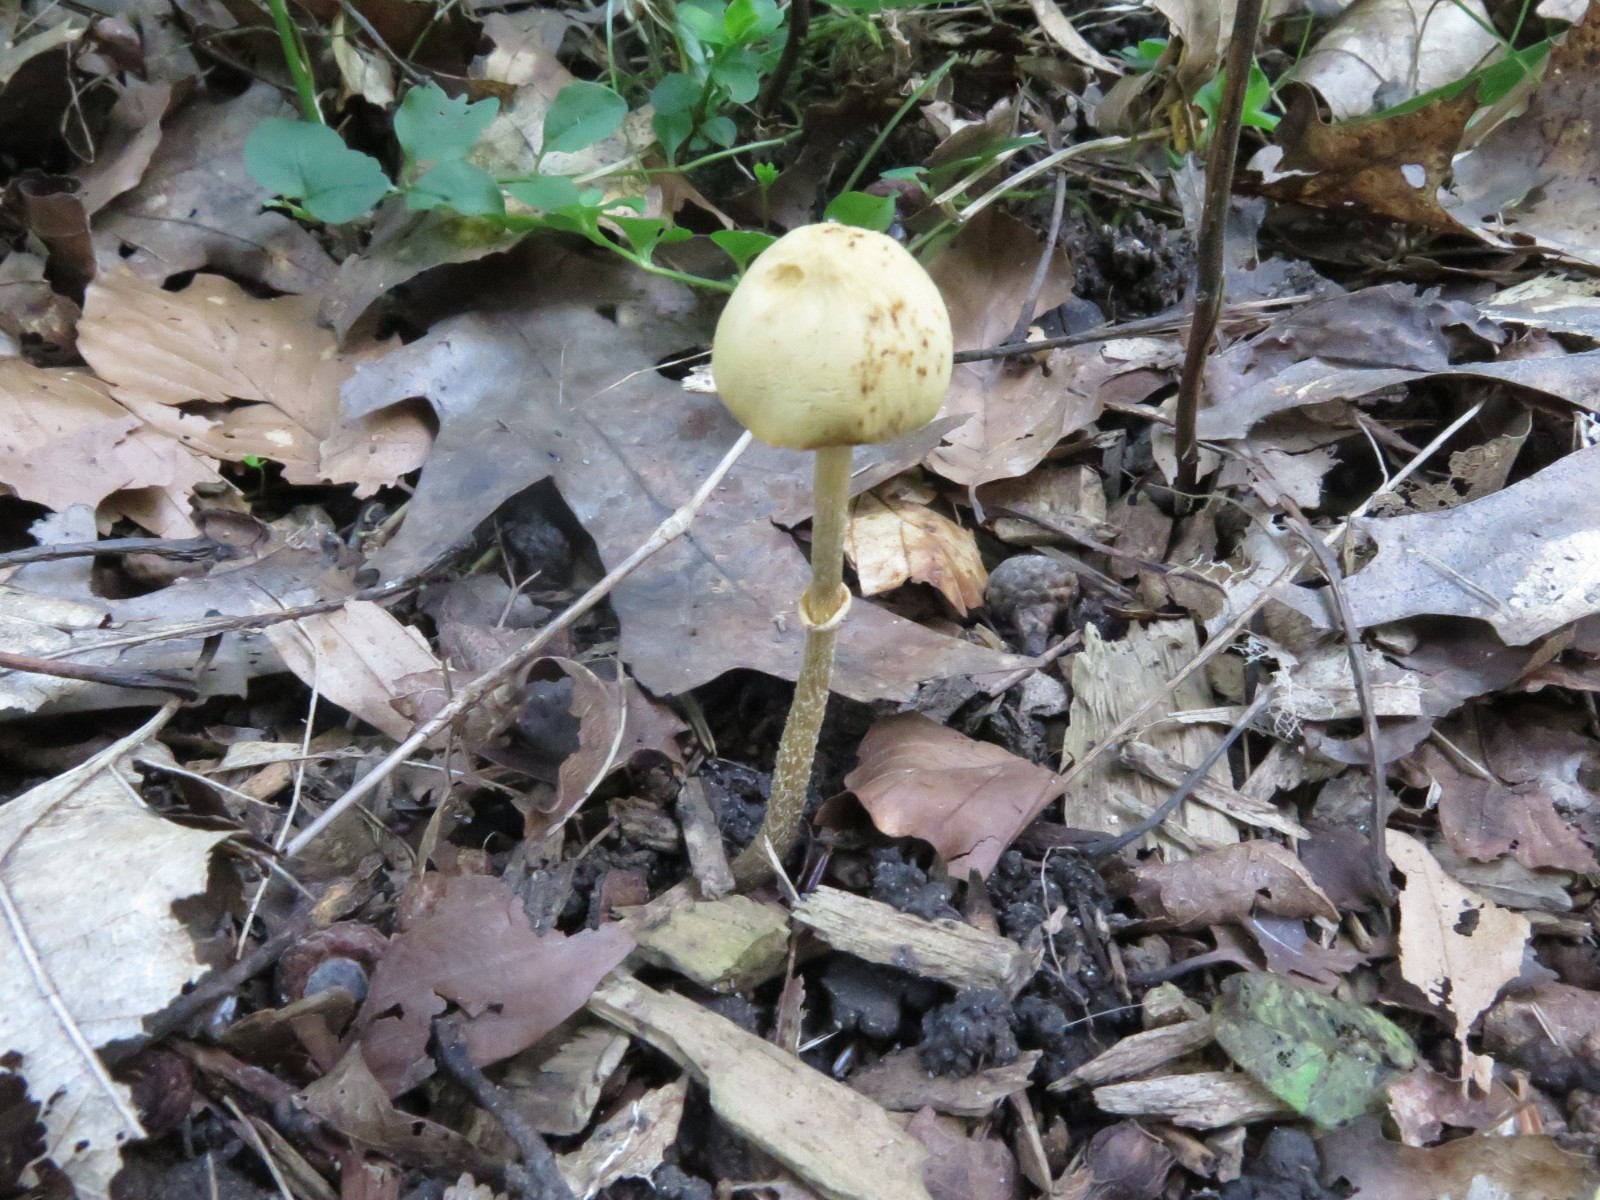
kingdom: Fungi
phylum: Basidiomycota
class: Agaricomycetes
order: Agaricales
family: Strophariaceae
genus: Leratiomyces
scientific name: Leratiomyces squamosus
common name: skællet bredblad
